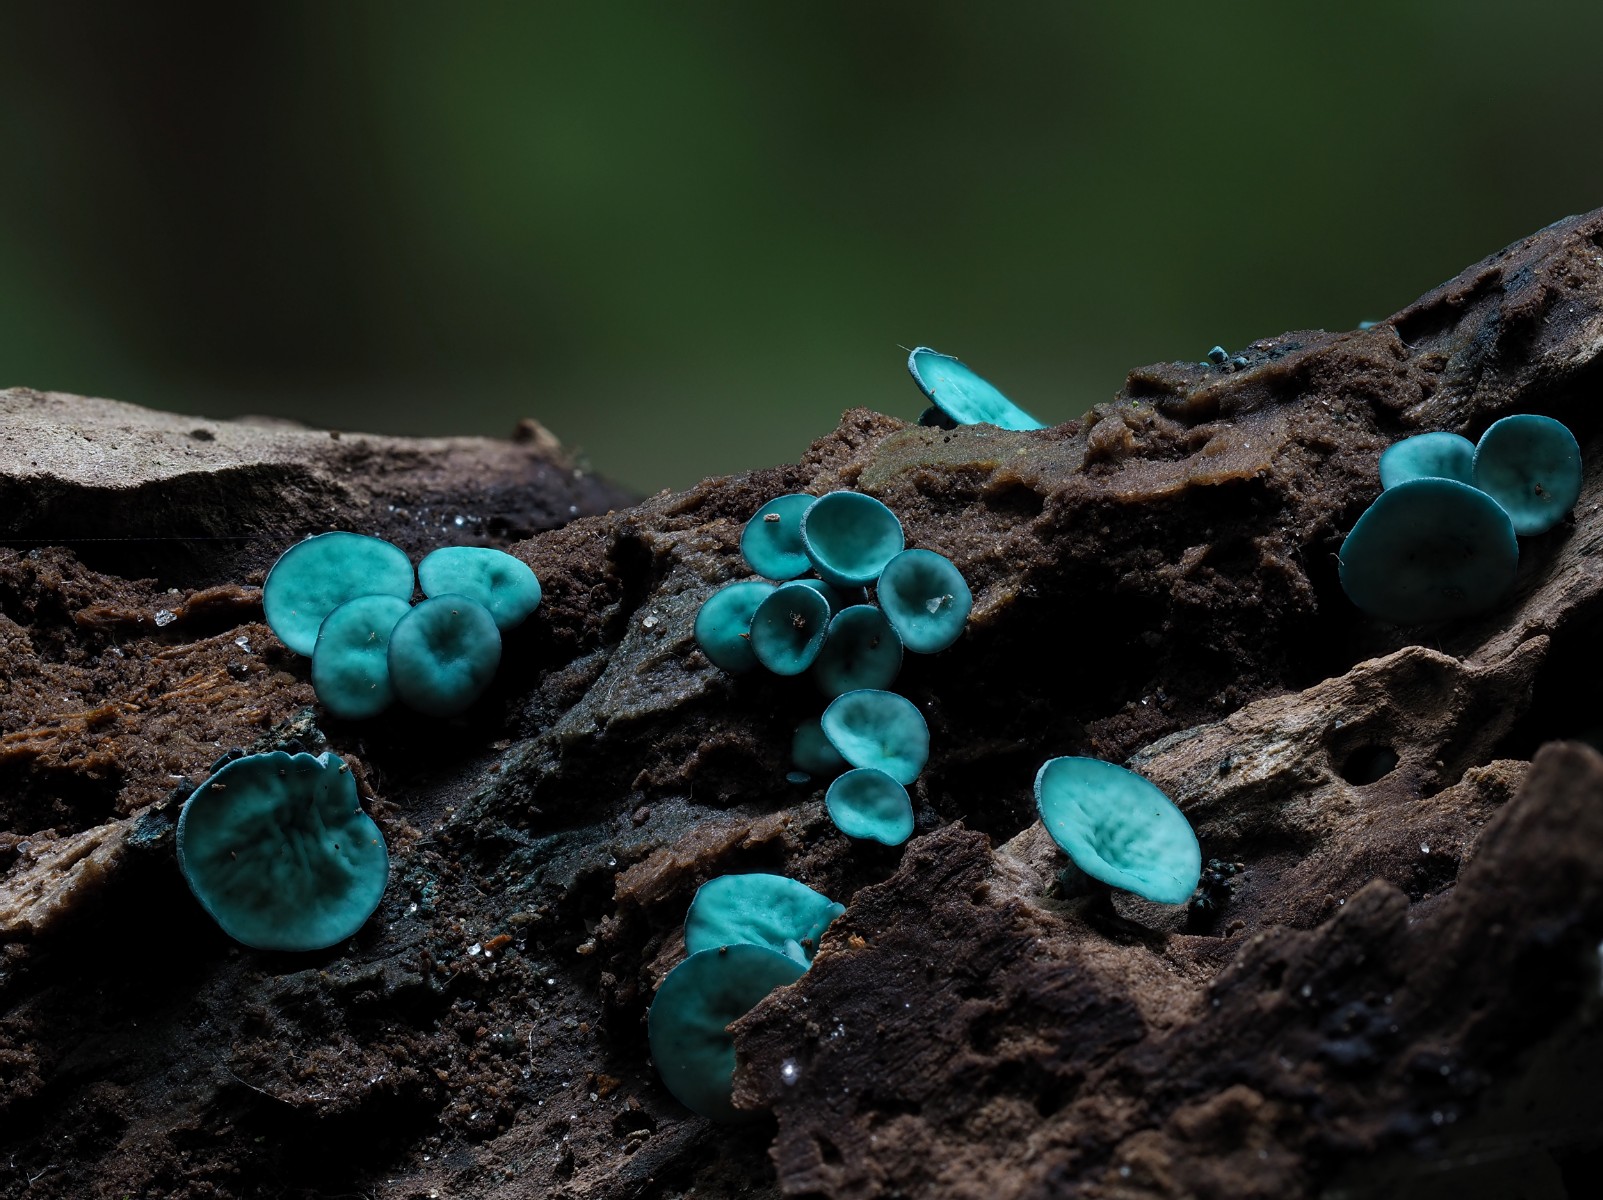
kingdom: Fungi
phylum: Ascomycota
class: Leotiomycetes
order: Helotiales
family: Chlorociboriaceae
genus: Chlorociboria
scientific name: Chlorociboria aeruginascens
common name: almindelig grønskive
